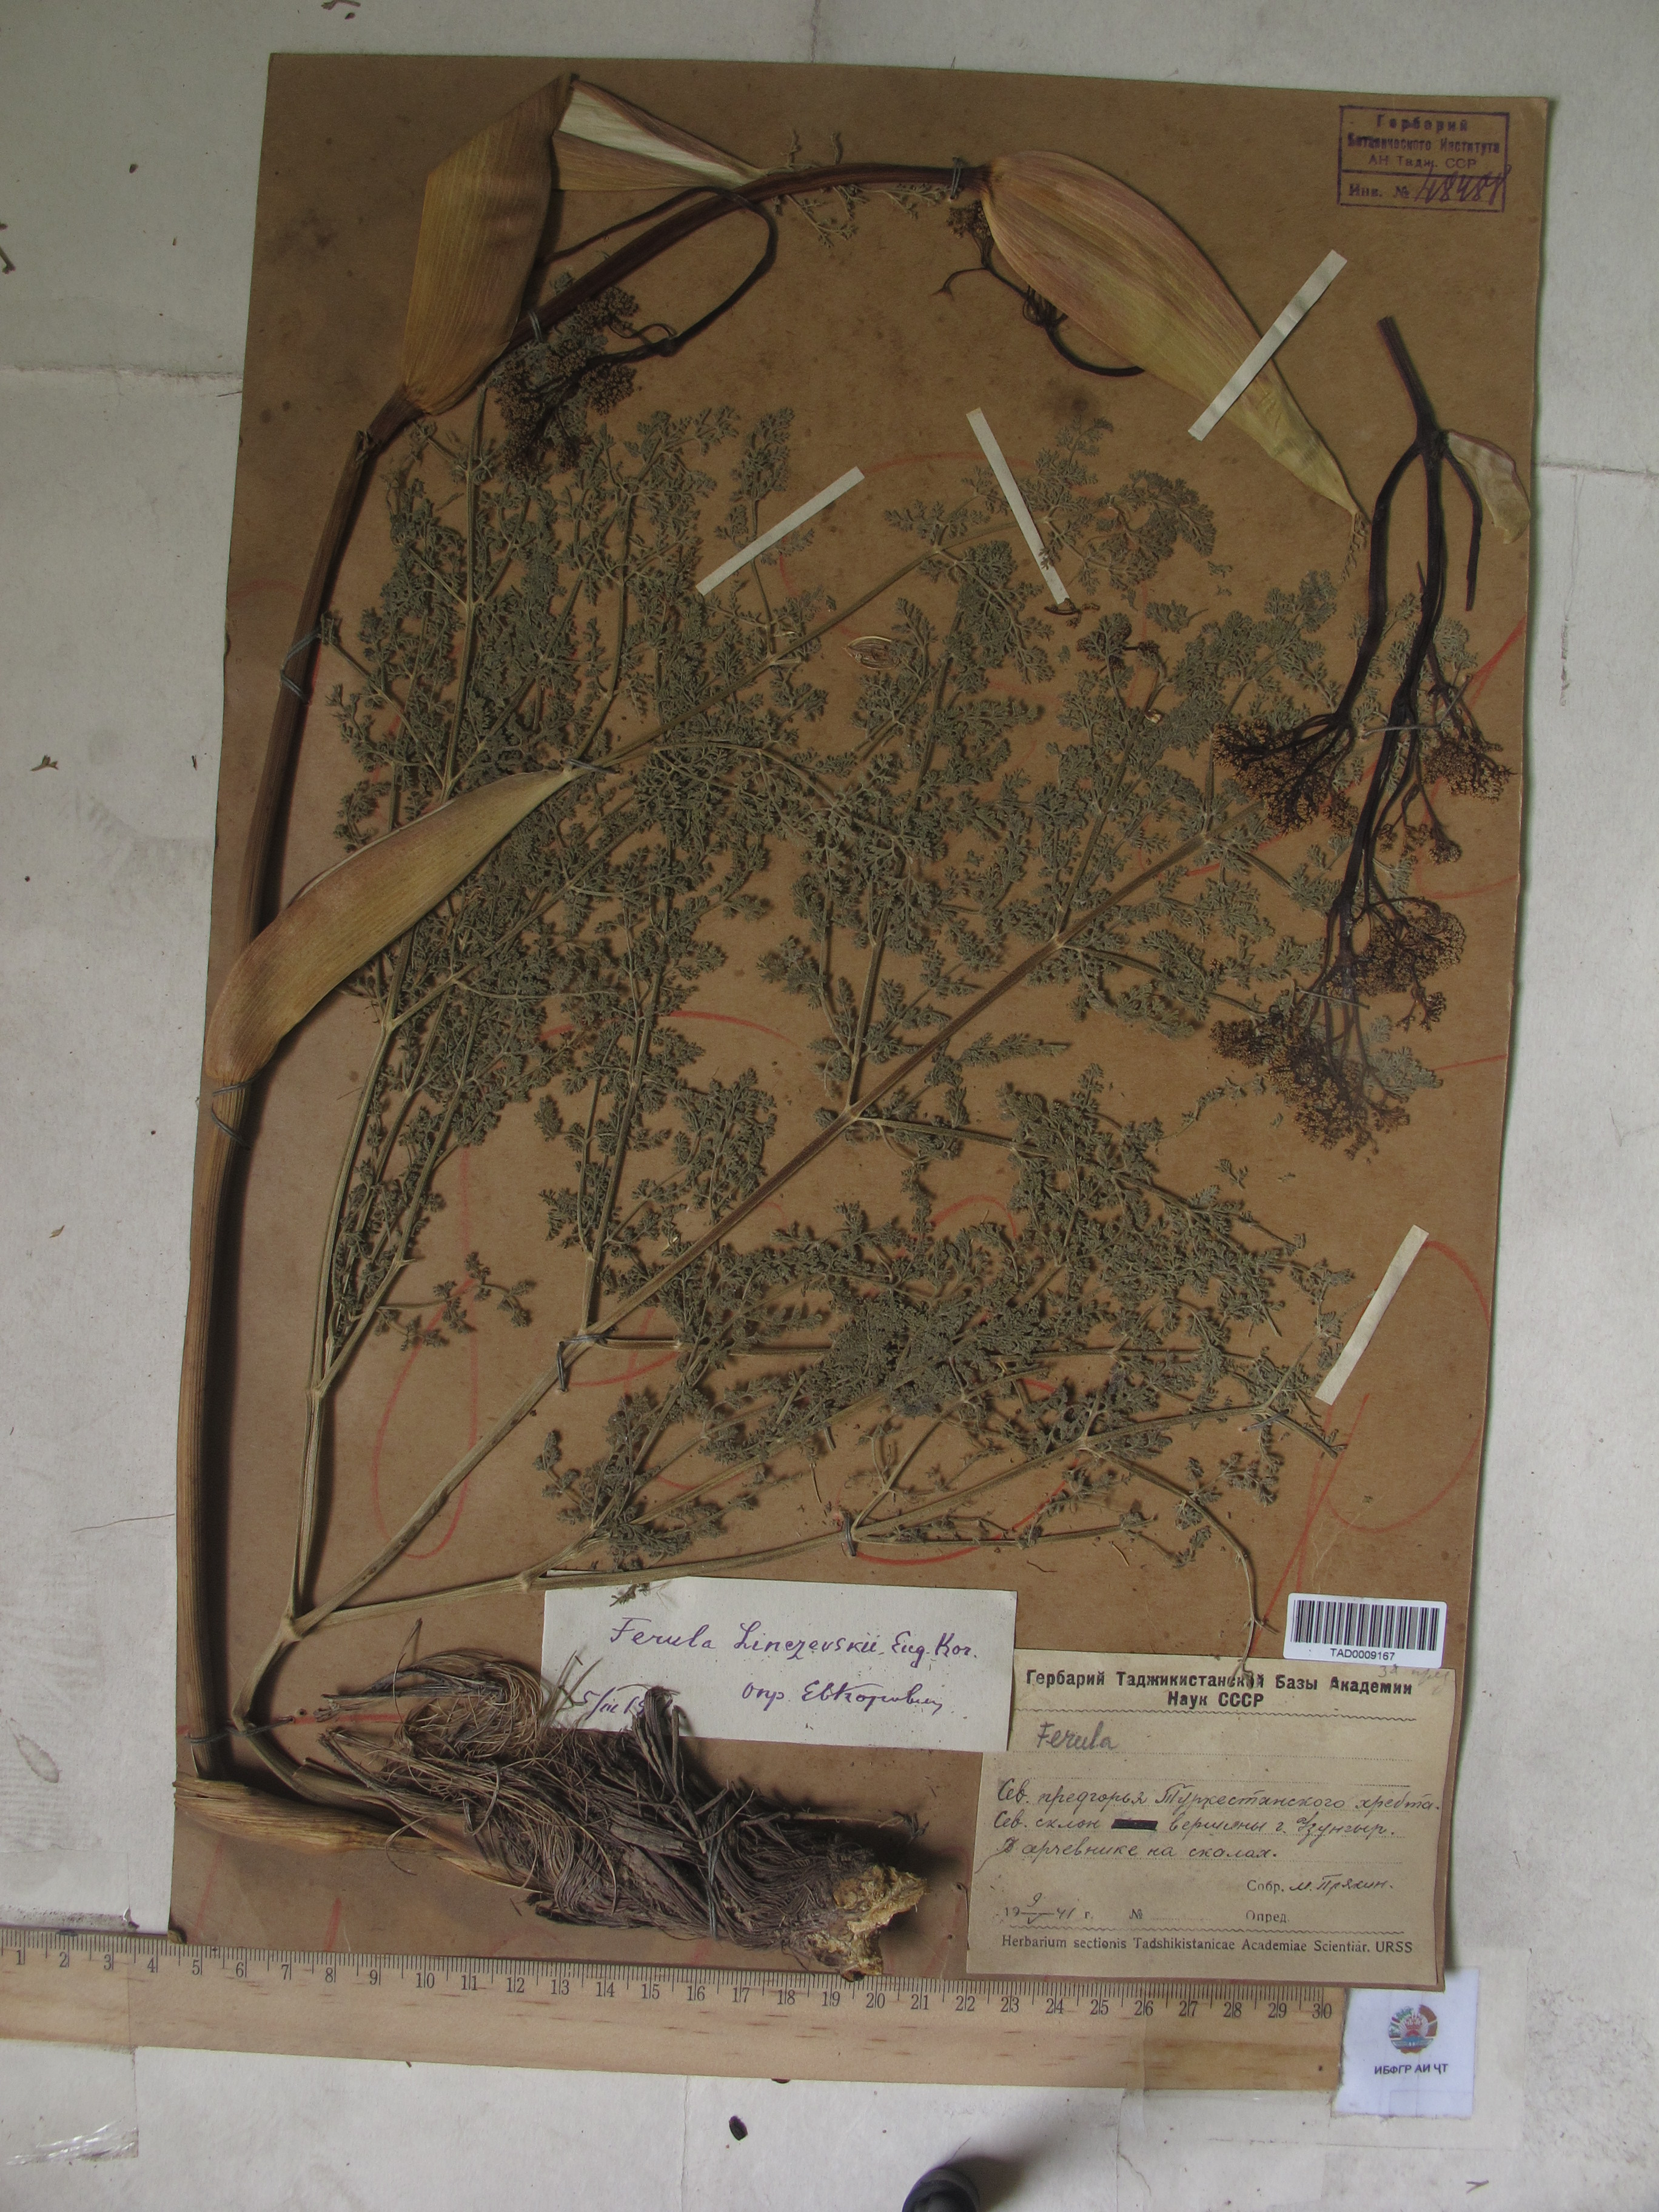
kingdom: Plantae
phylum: Tracheophyta
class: Magnoliopsida
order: Apiales
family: Apiaceae
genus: Ferula
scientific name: Ferula jaeschkeana
